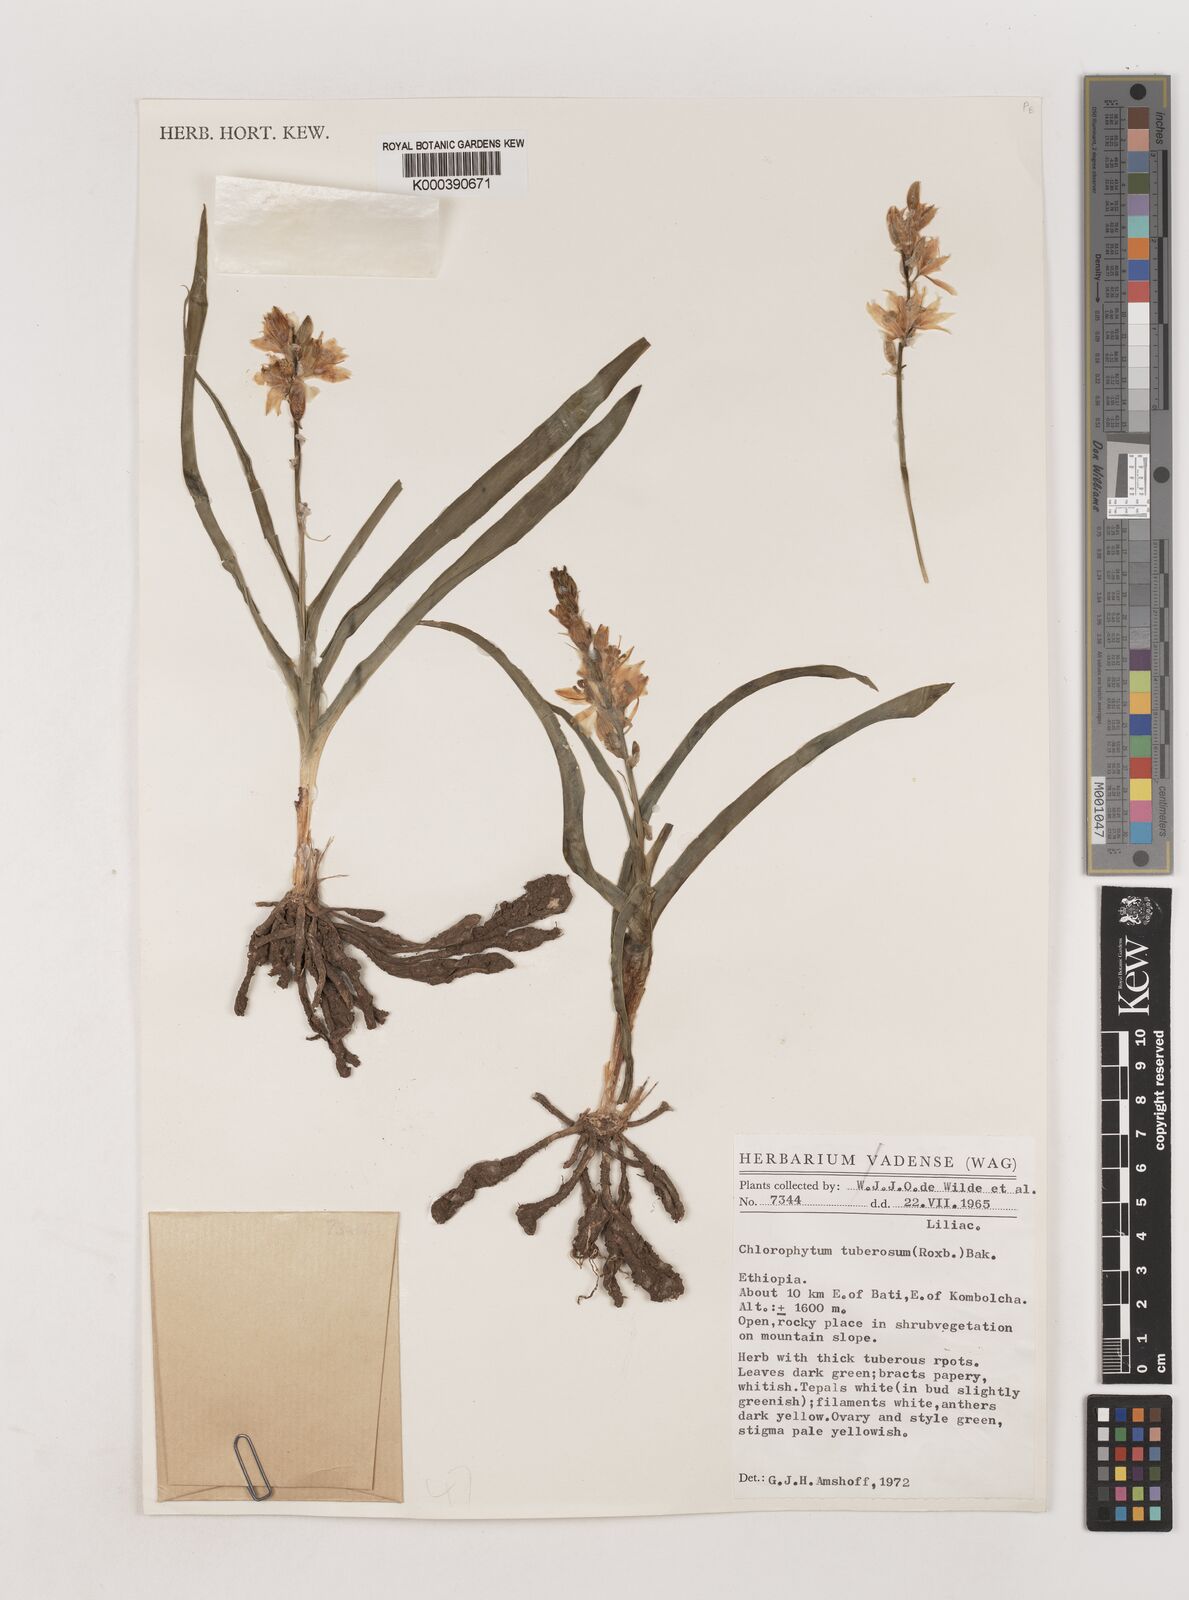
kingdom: Plantae
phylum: Tracheophyta
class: Liliopsida
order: Asparagales
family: Asparagaceae
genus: Chlorophytum
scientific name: Chlorophytum tuberosum
